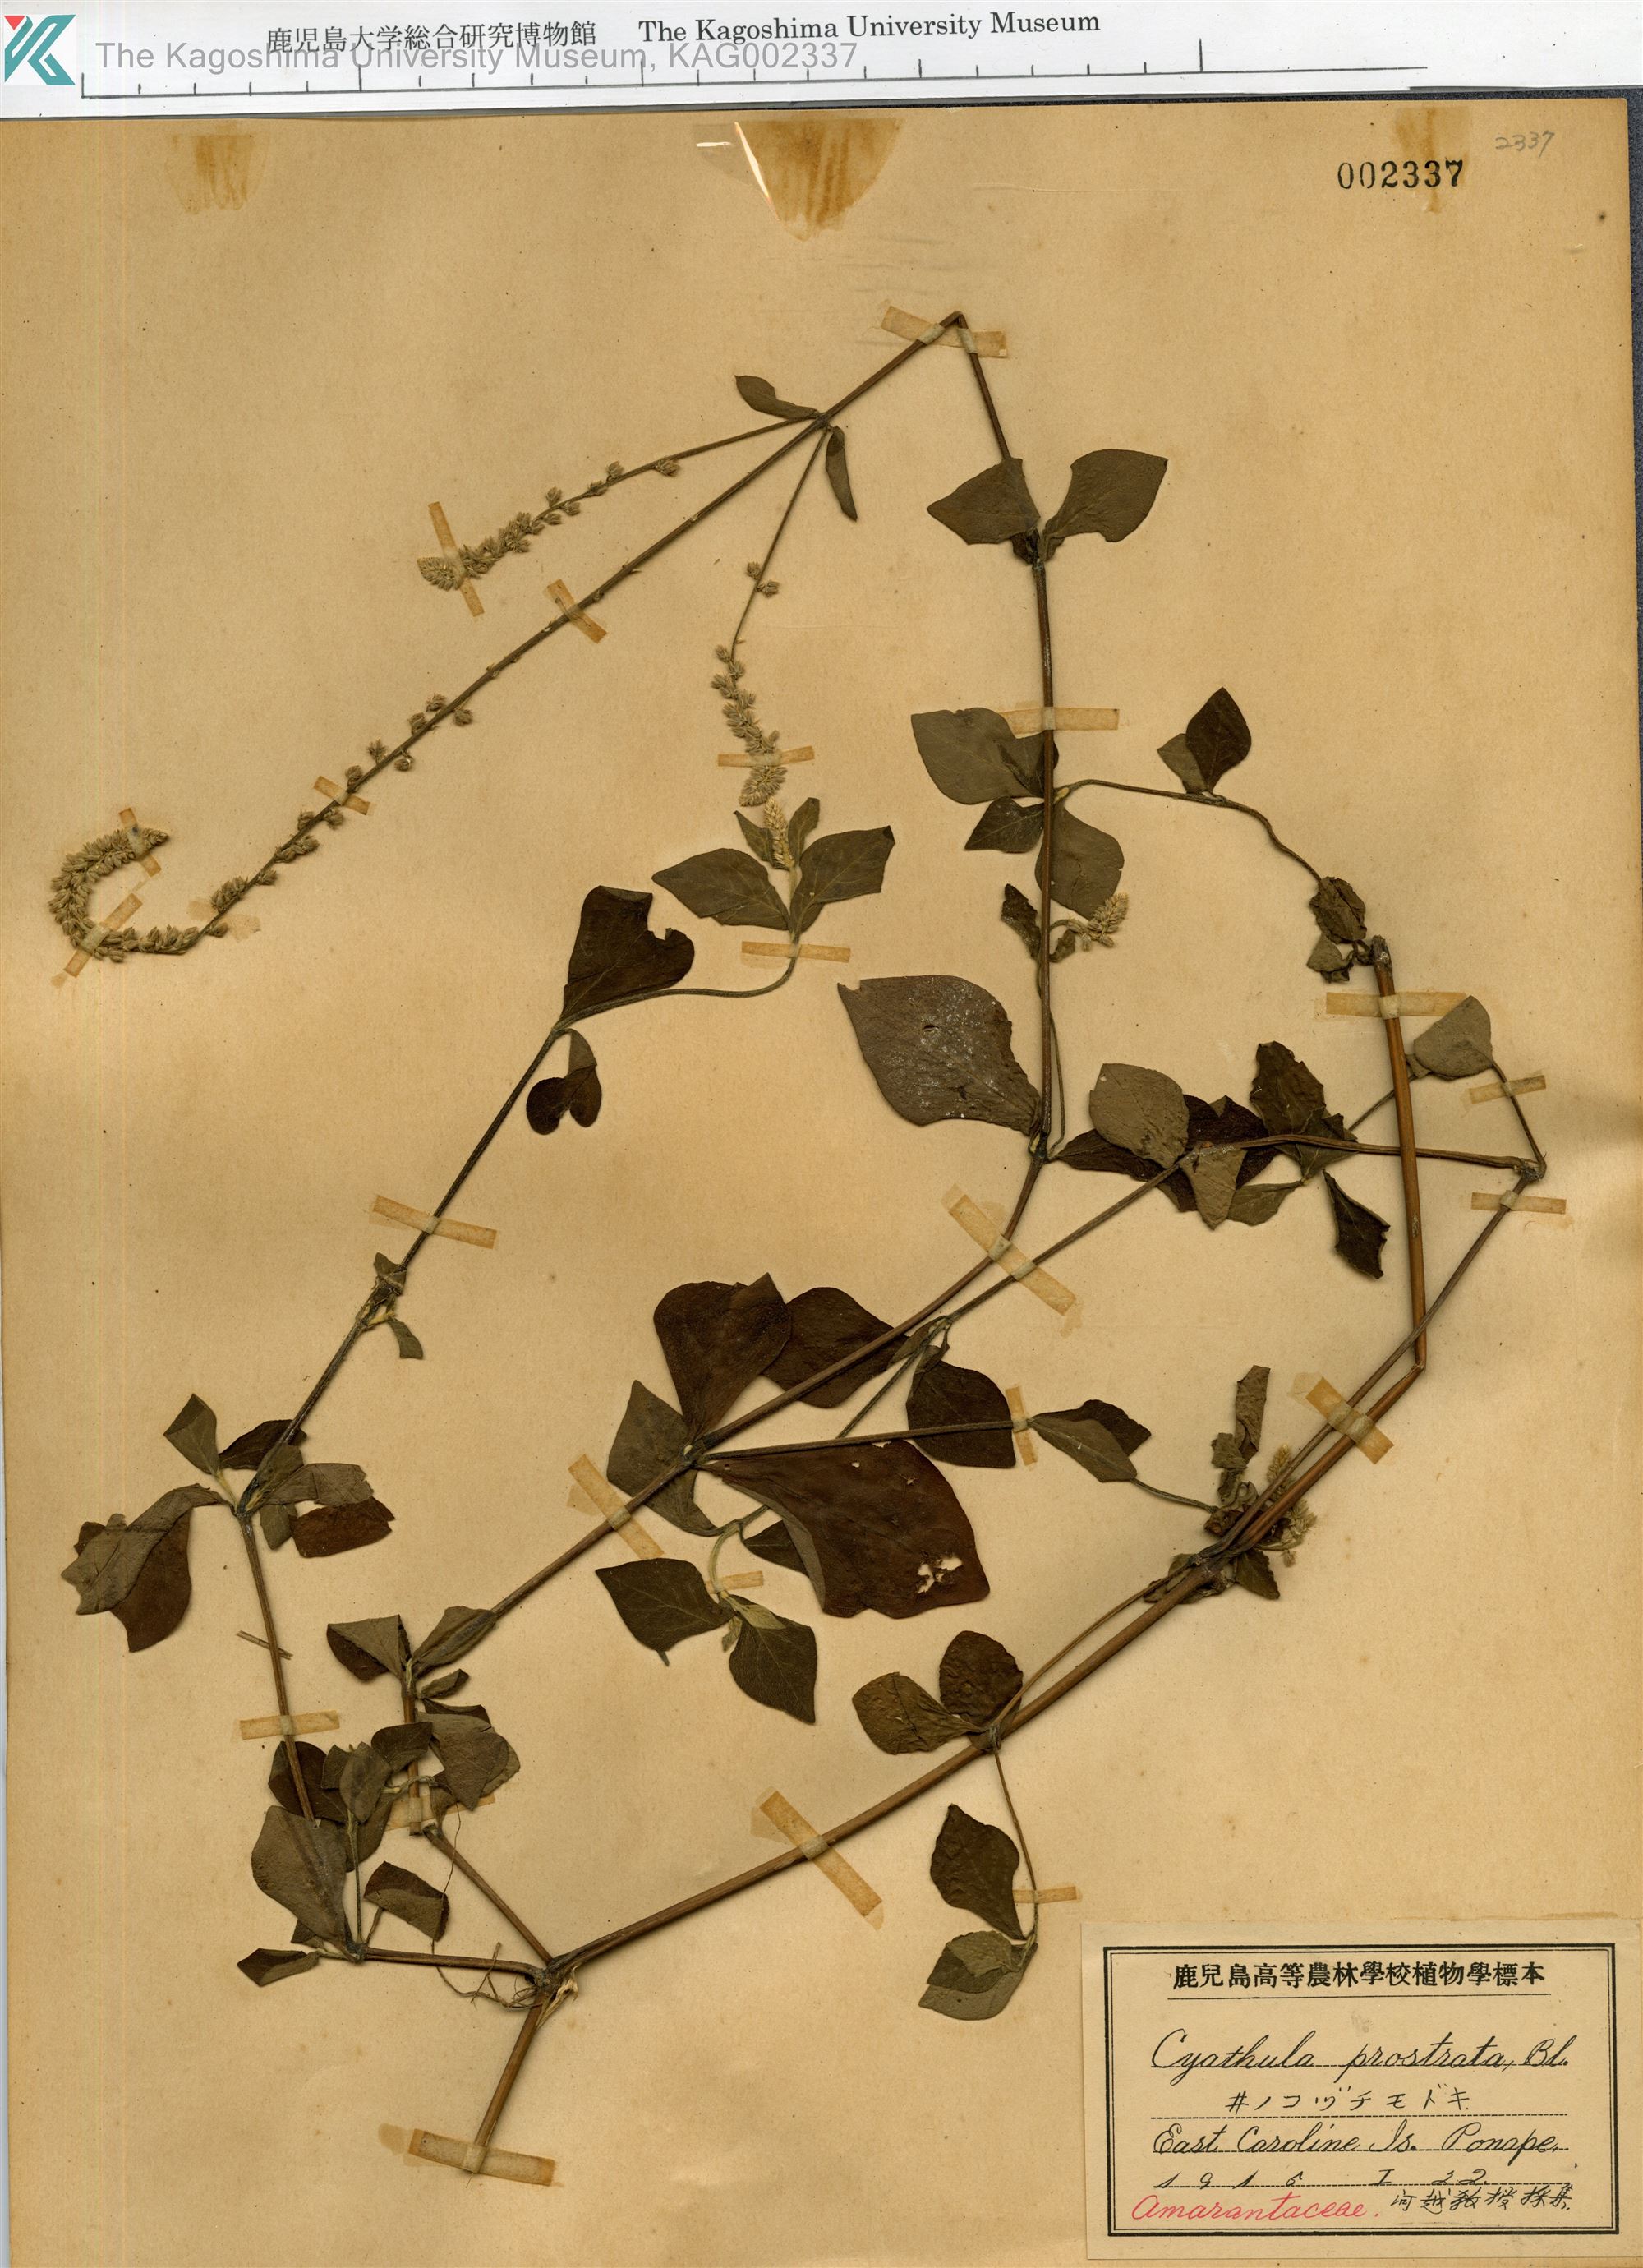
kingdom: Plantae
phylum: Tracheophyta
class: Magnoliopsida
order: Caryophyllales
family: Amaranthaceae
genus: Cyathula
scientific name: Cyathula prostrata
